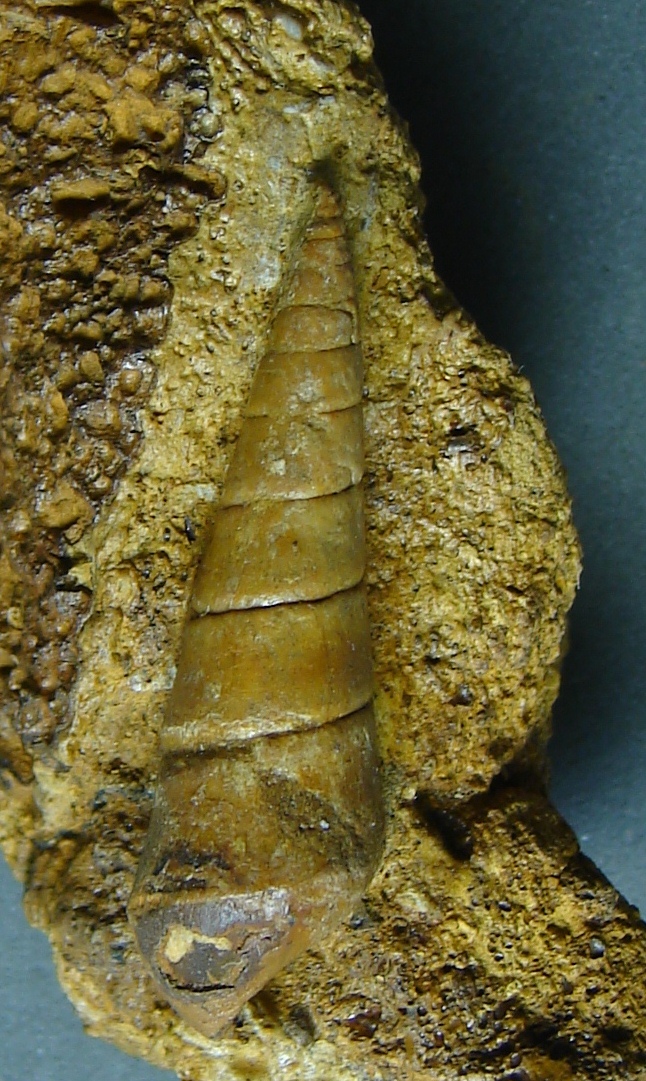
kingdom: Animalia
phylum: Mollusca
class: Gastropoda
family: Pseudomelaniidae
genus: Pseudomelania
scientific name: Pseudomelania
